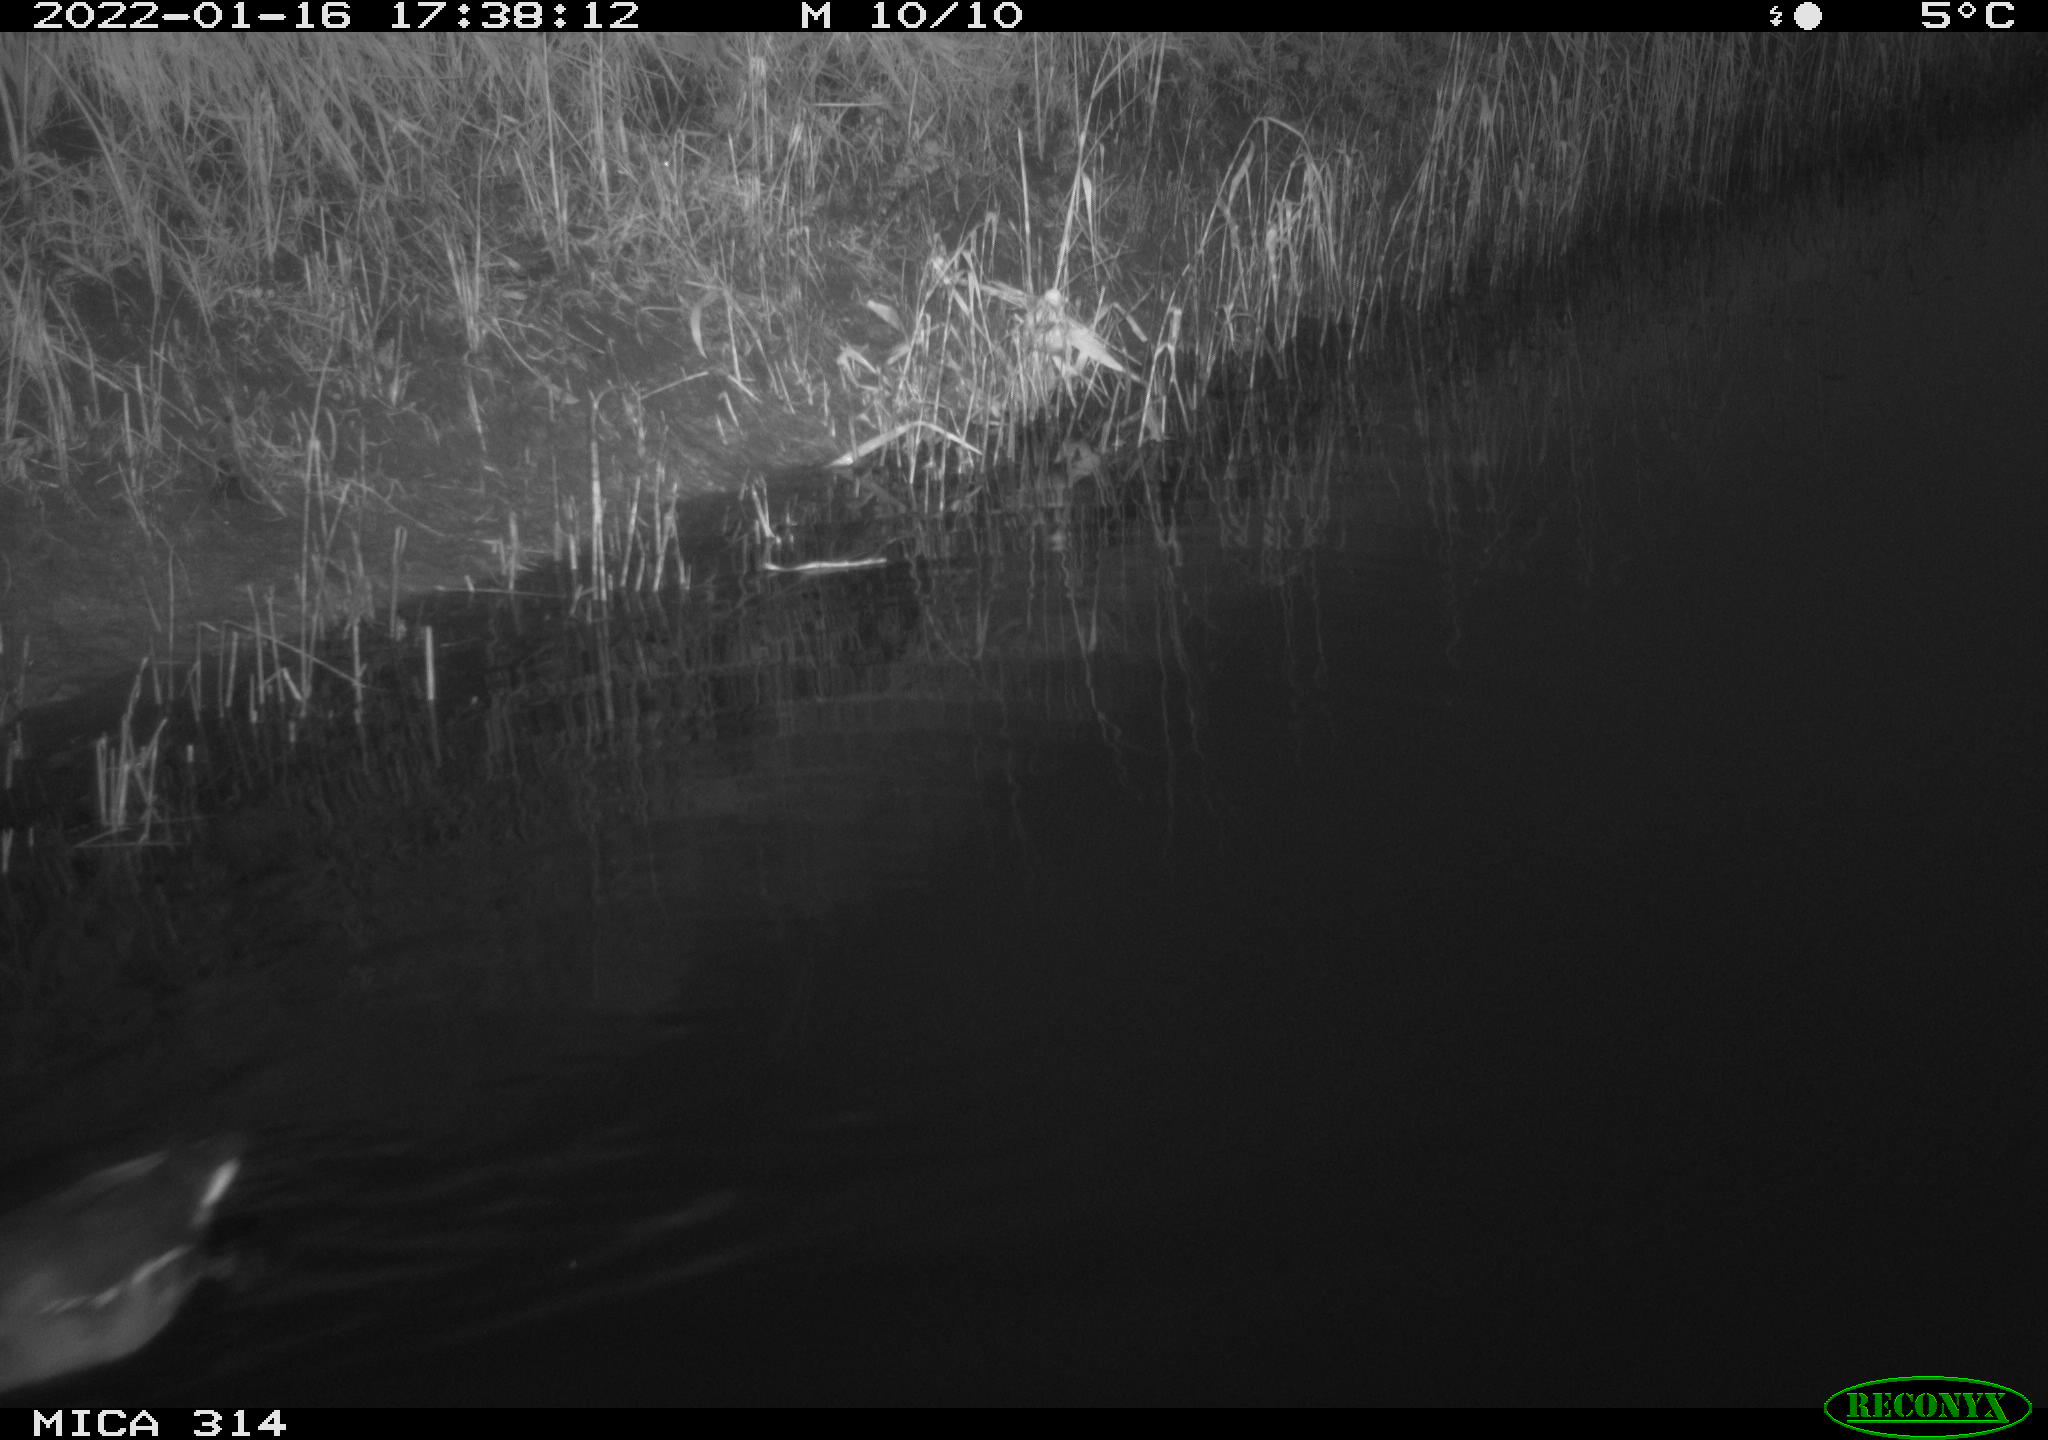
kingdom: Animalia
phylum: Chordata
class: Aves
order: Gruiformes
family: Rallidae
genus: Gallinula
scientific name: Gallinula chloropus
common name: Common moorhen
